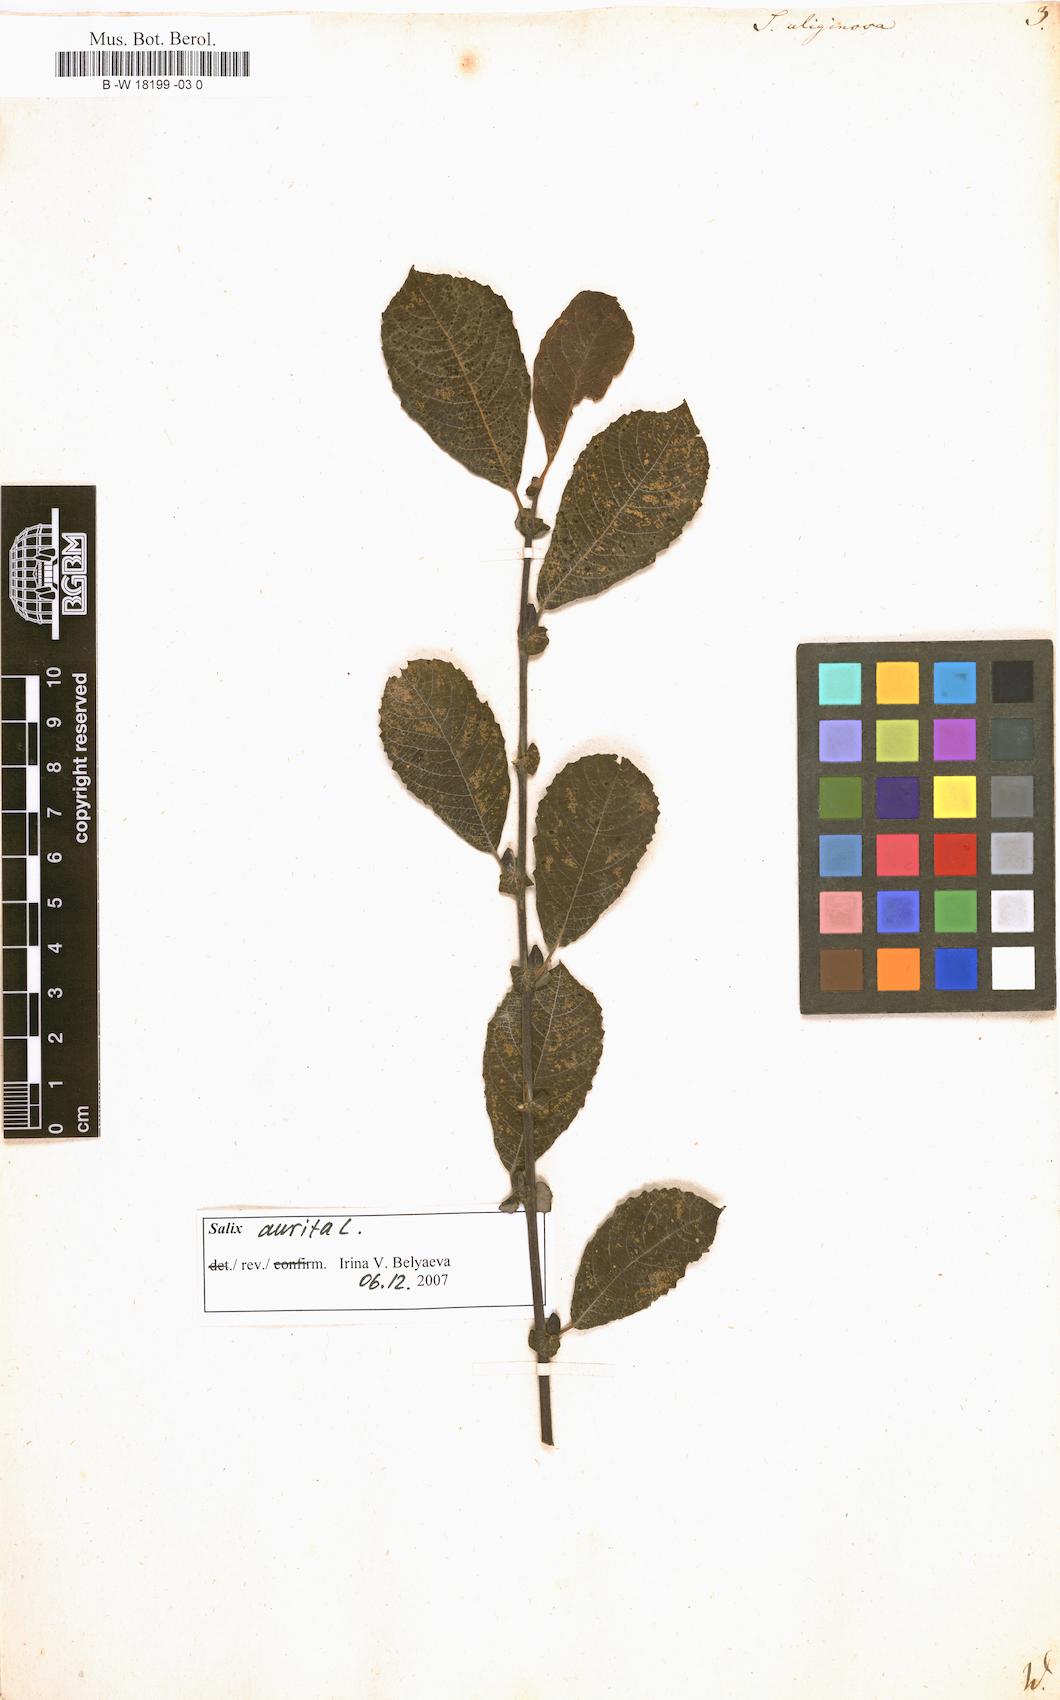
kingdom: Plantae
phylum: Tracheophyta
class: Magnoliopsida
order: Malpighiales
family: Salicaceae
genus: Salix
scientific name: Salix
